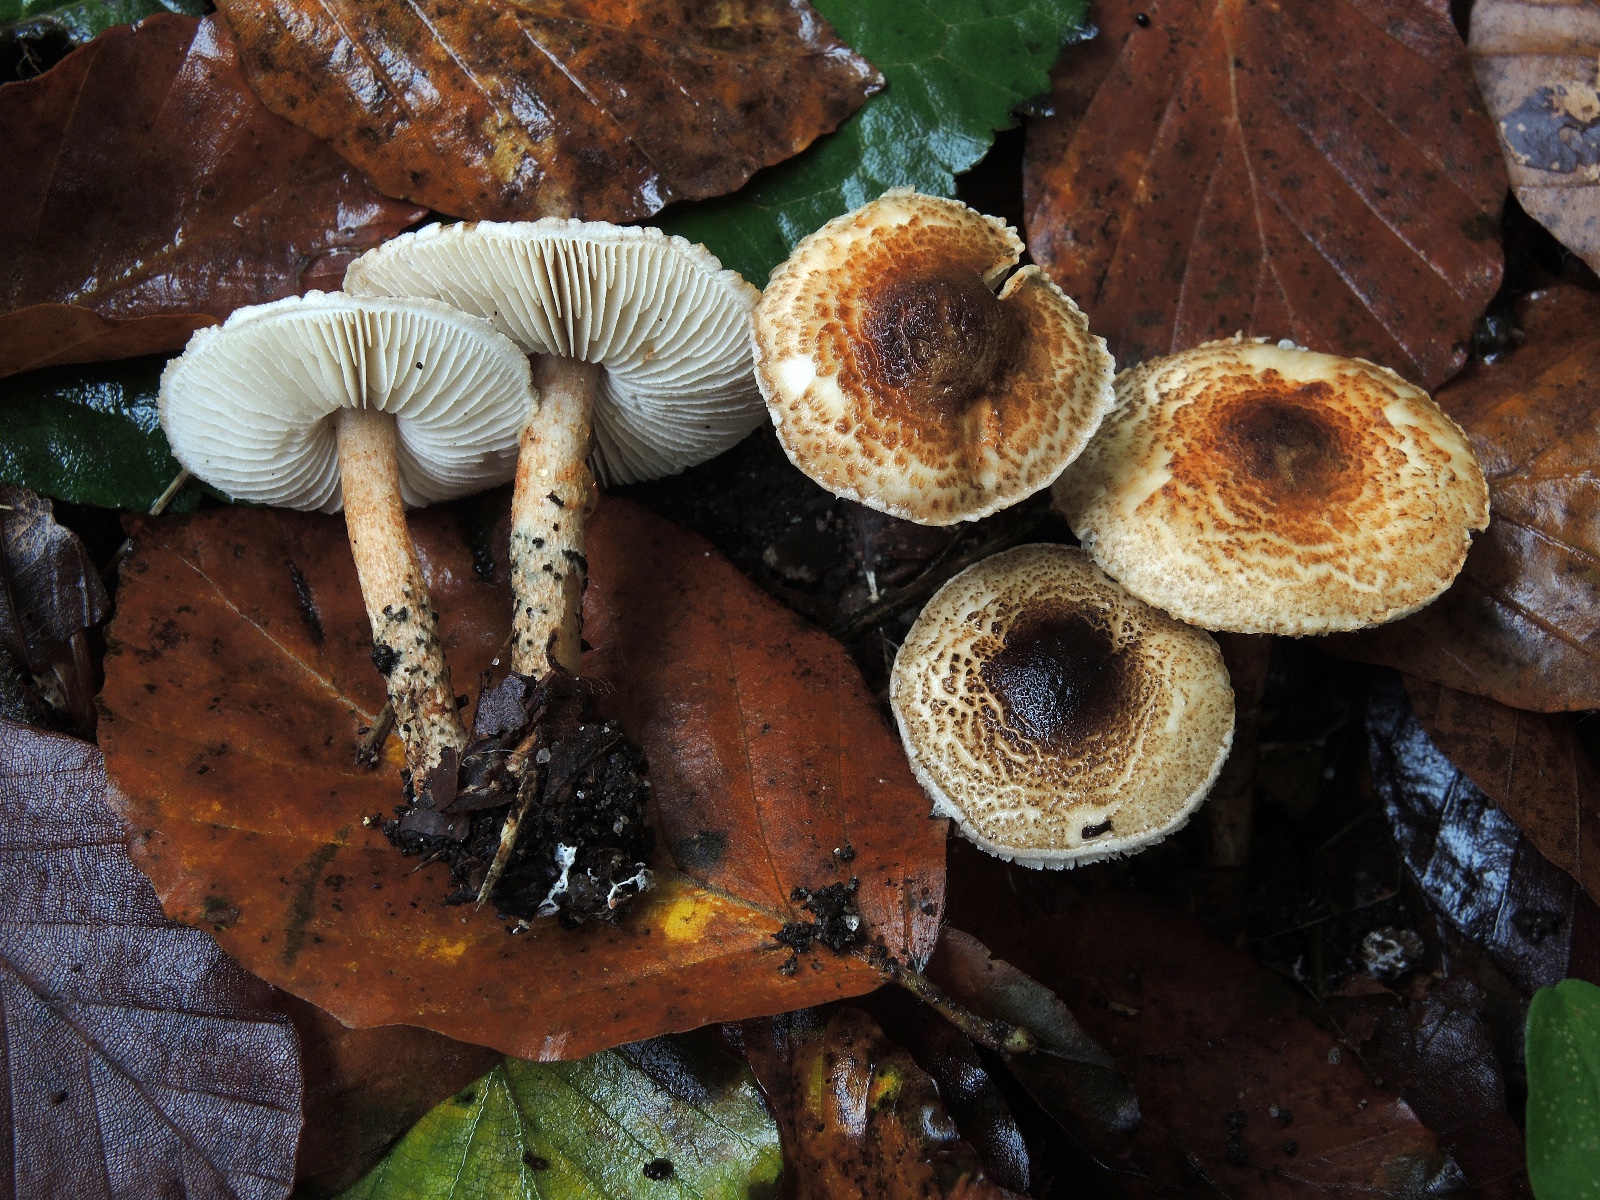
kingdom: Fungi
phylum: Basidiomycota
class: Agaricomycetes
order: Agaricales
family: Agaricaceae
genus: Lepiota
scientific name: Lepiota grangei
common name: grønskællet parasolhat
